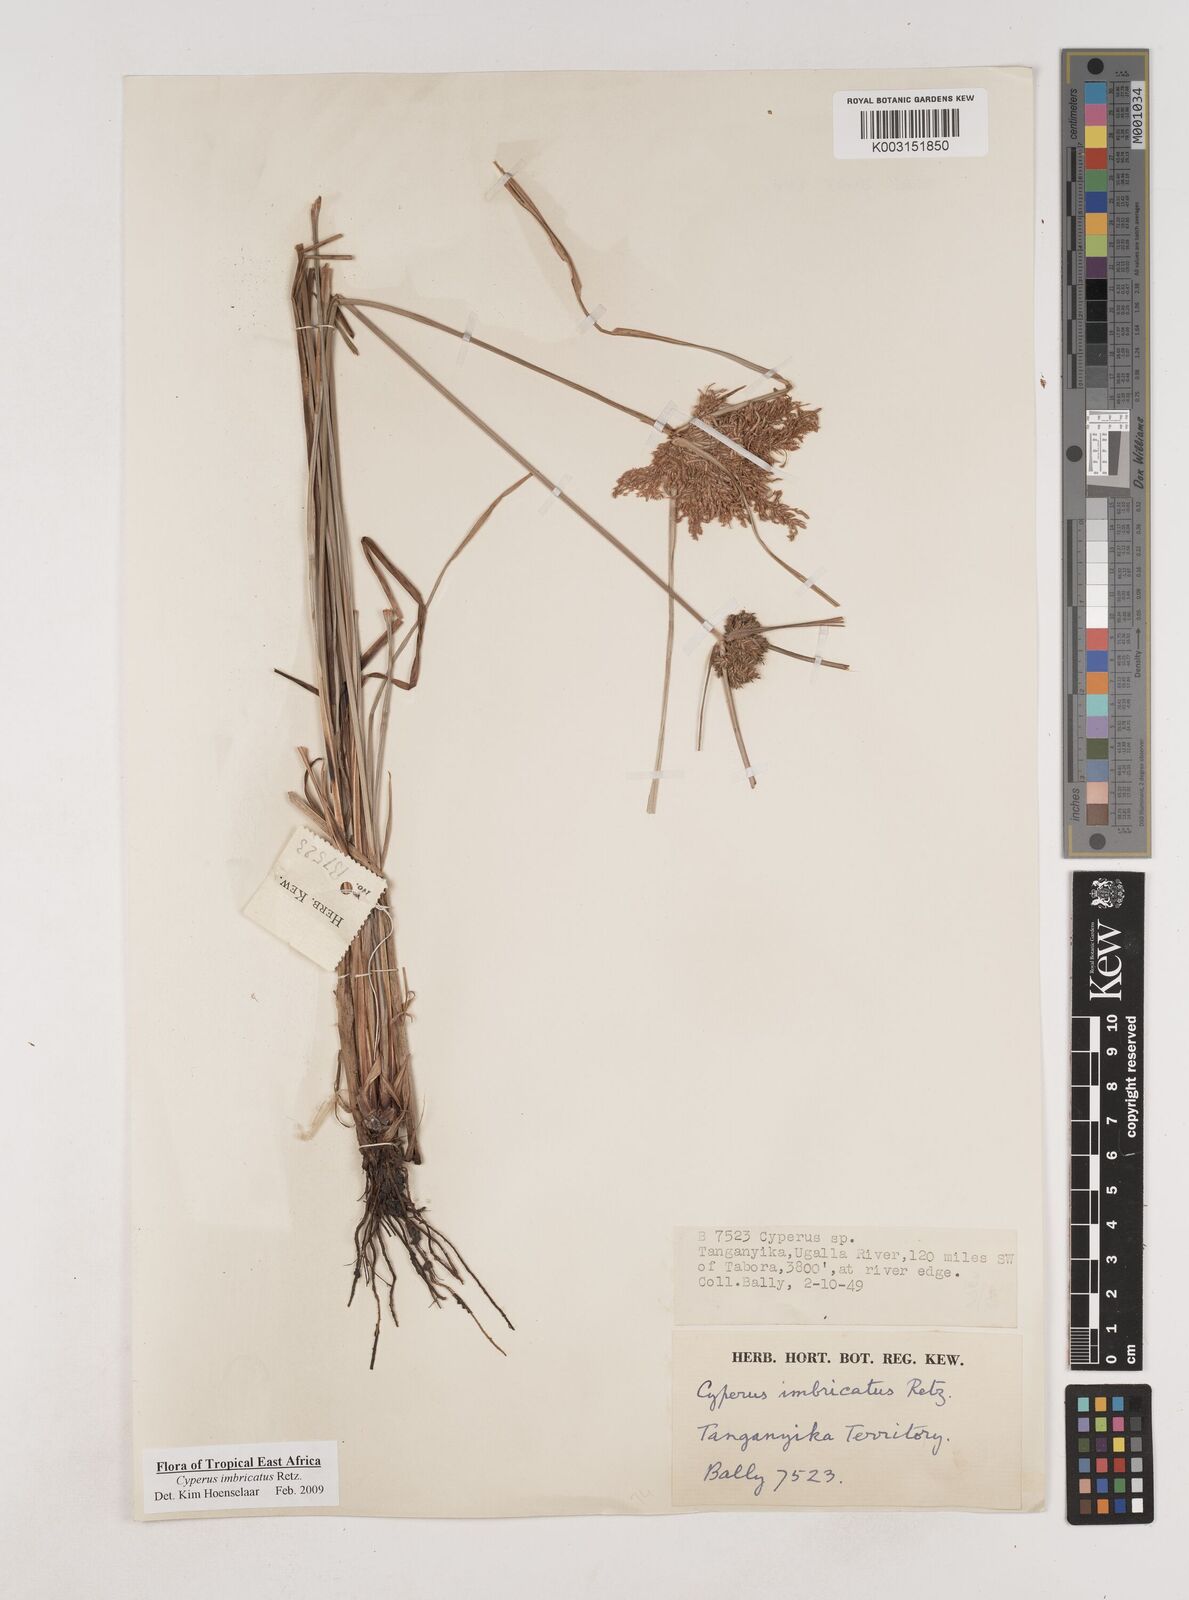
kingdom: Plantae
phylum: Tracheophyta
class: Liliopsida
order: Poales
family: Cyperaceae
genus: Cyperus
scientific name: Cyperus imbricatus
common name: Shingle flatsedge
